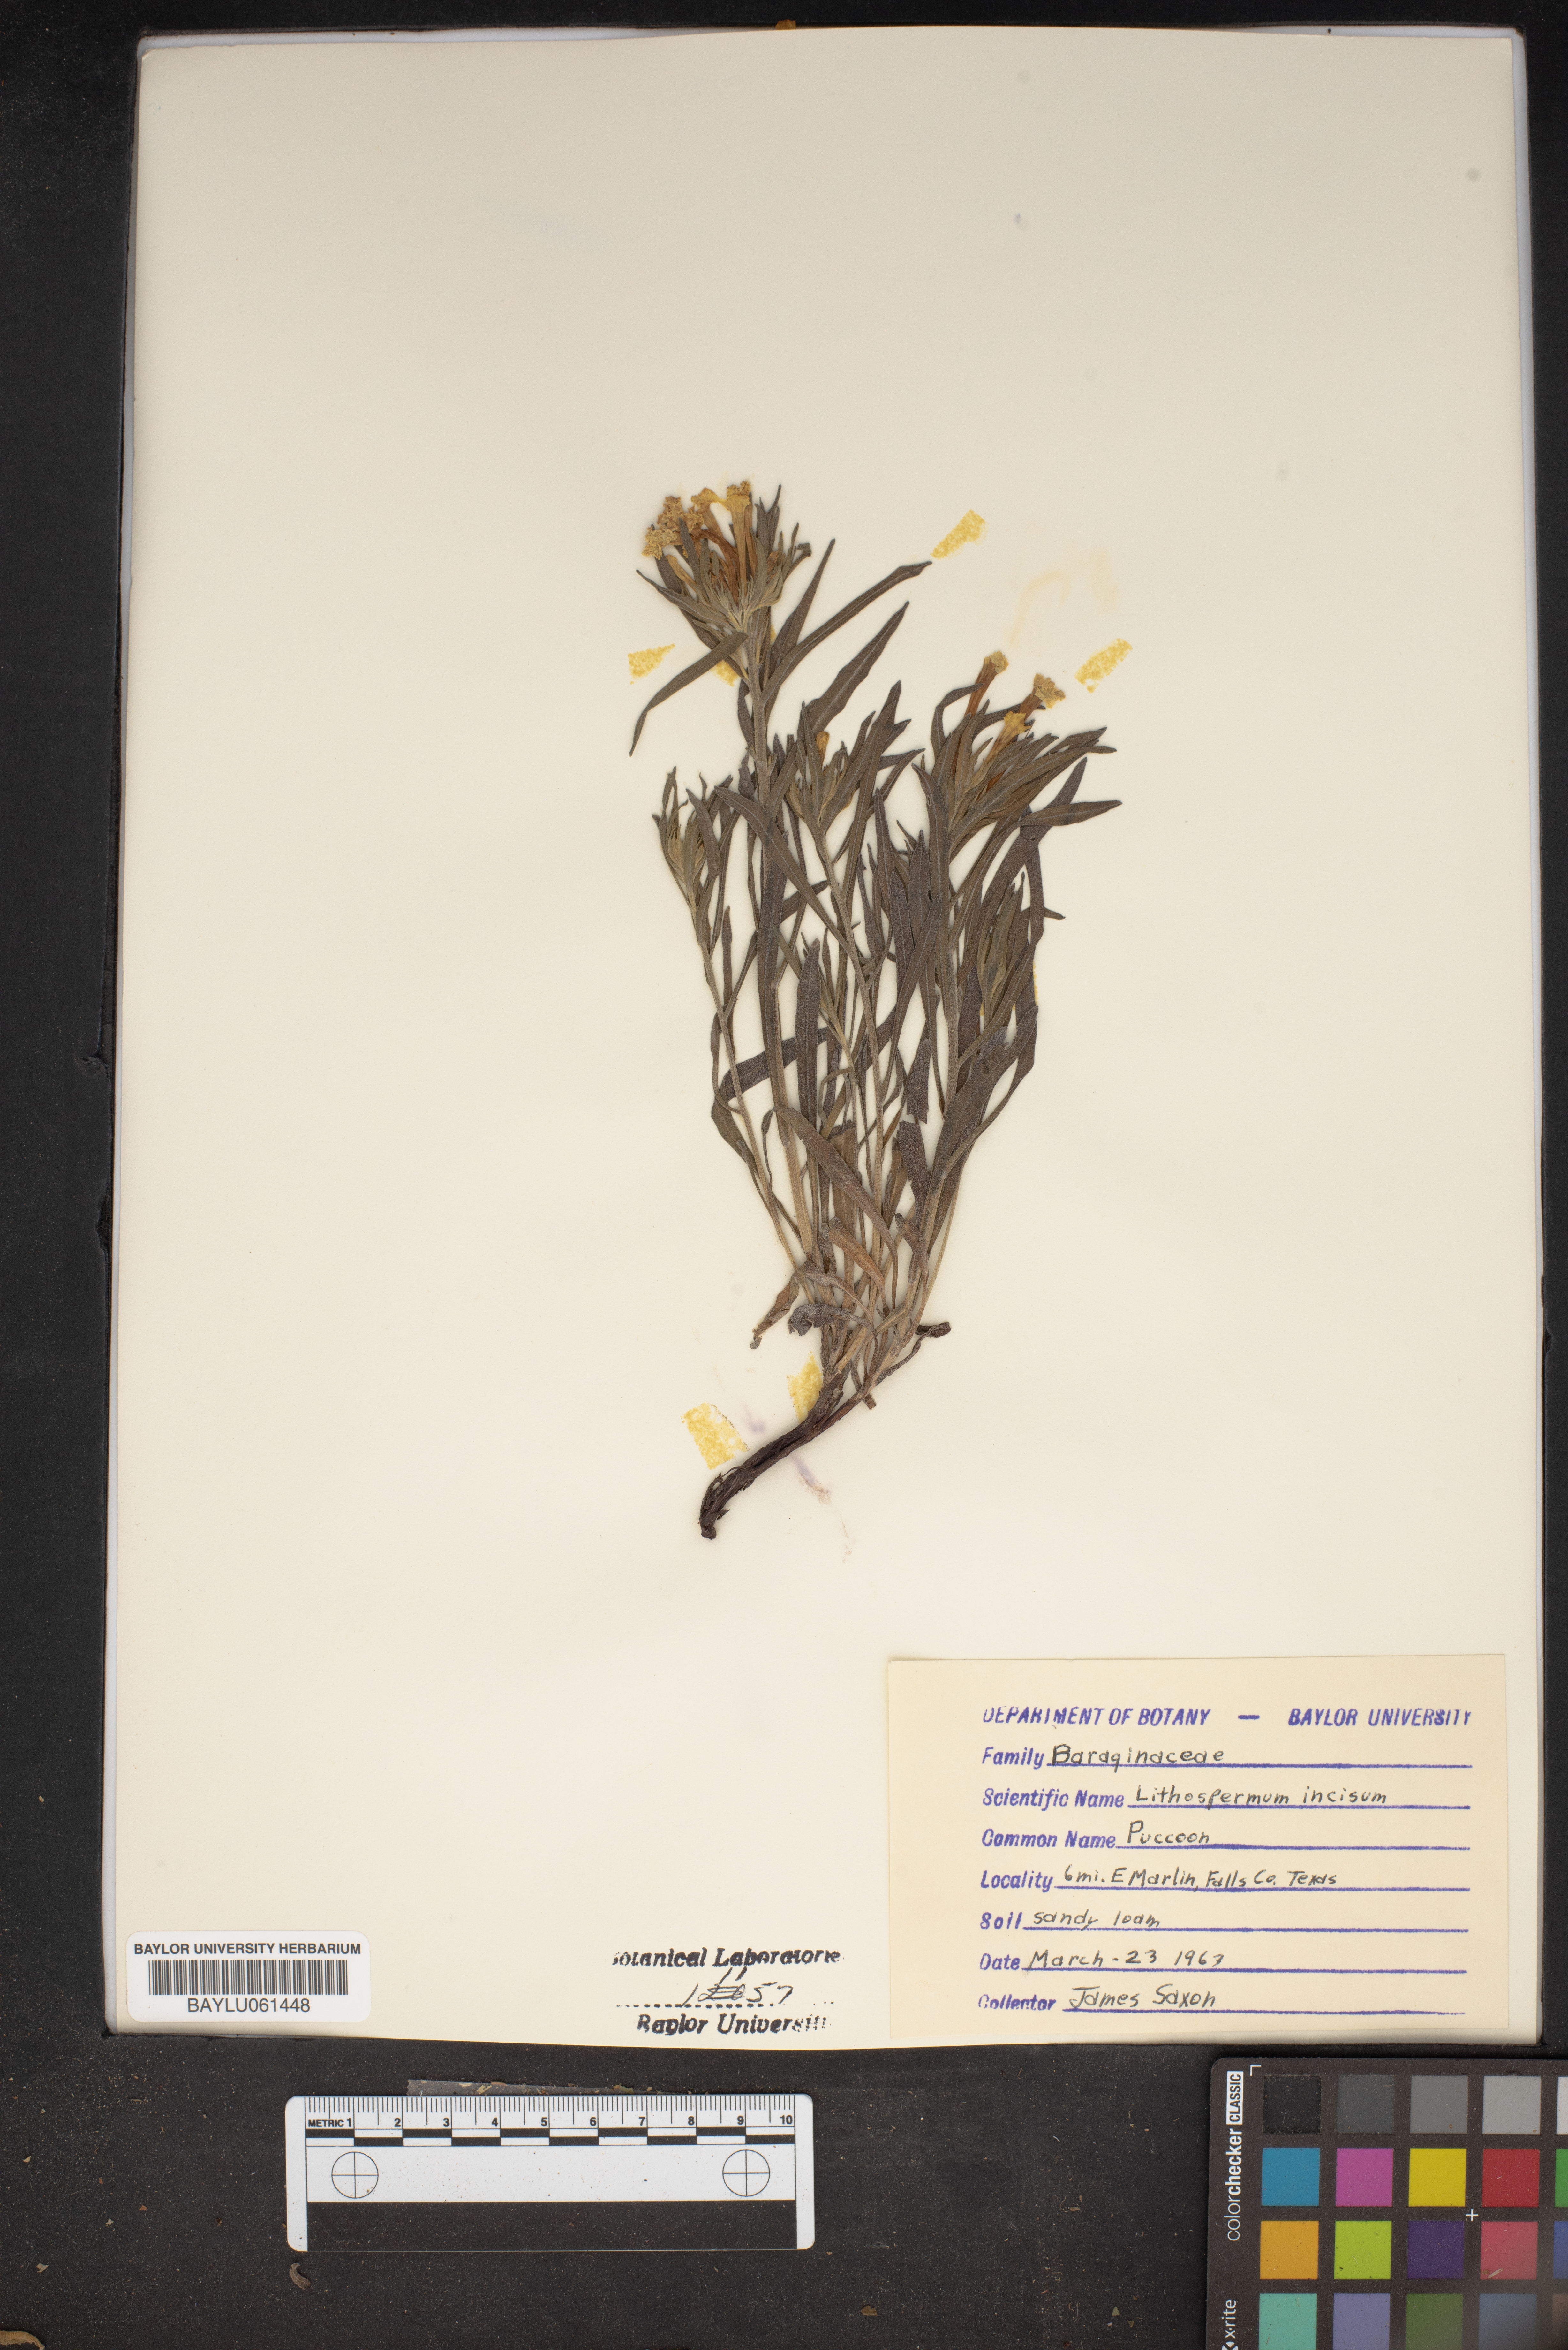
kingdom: Plantae
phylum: Tracheophyta
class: Magnoliopsida
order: Boraginales
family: Boraginaceae
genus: Lithospermum
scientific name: Lithospermum incisum
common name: Fringed gromwell
